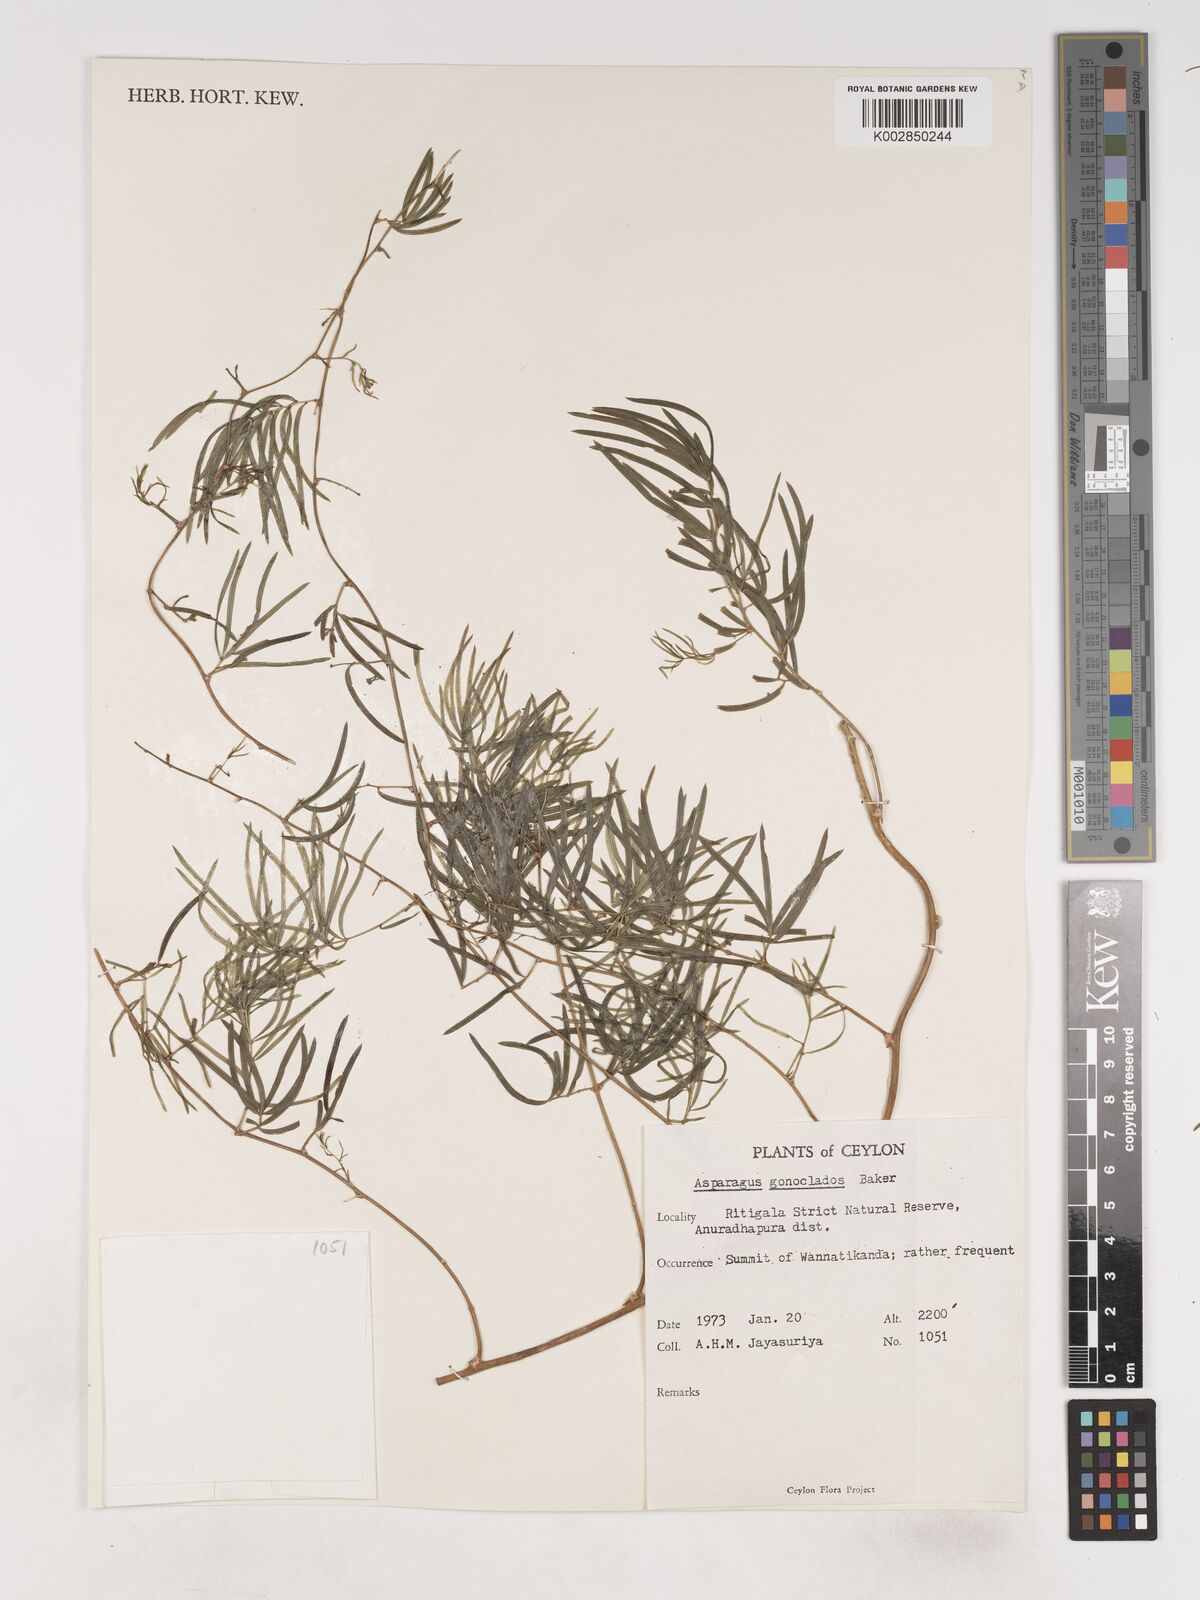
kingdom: Plantae
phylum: Tracheophyta
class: Liliopsida
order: Asparagales
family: Asparagaceae
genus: Asparagus
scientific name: Asparagus gonoclados
